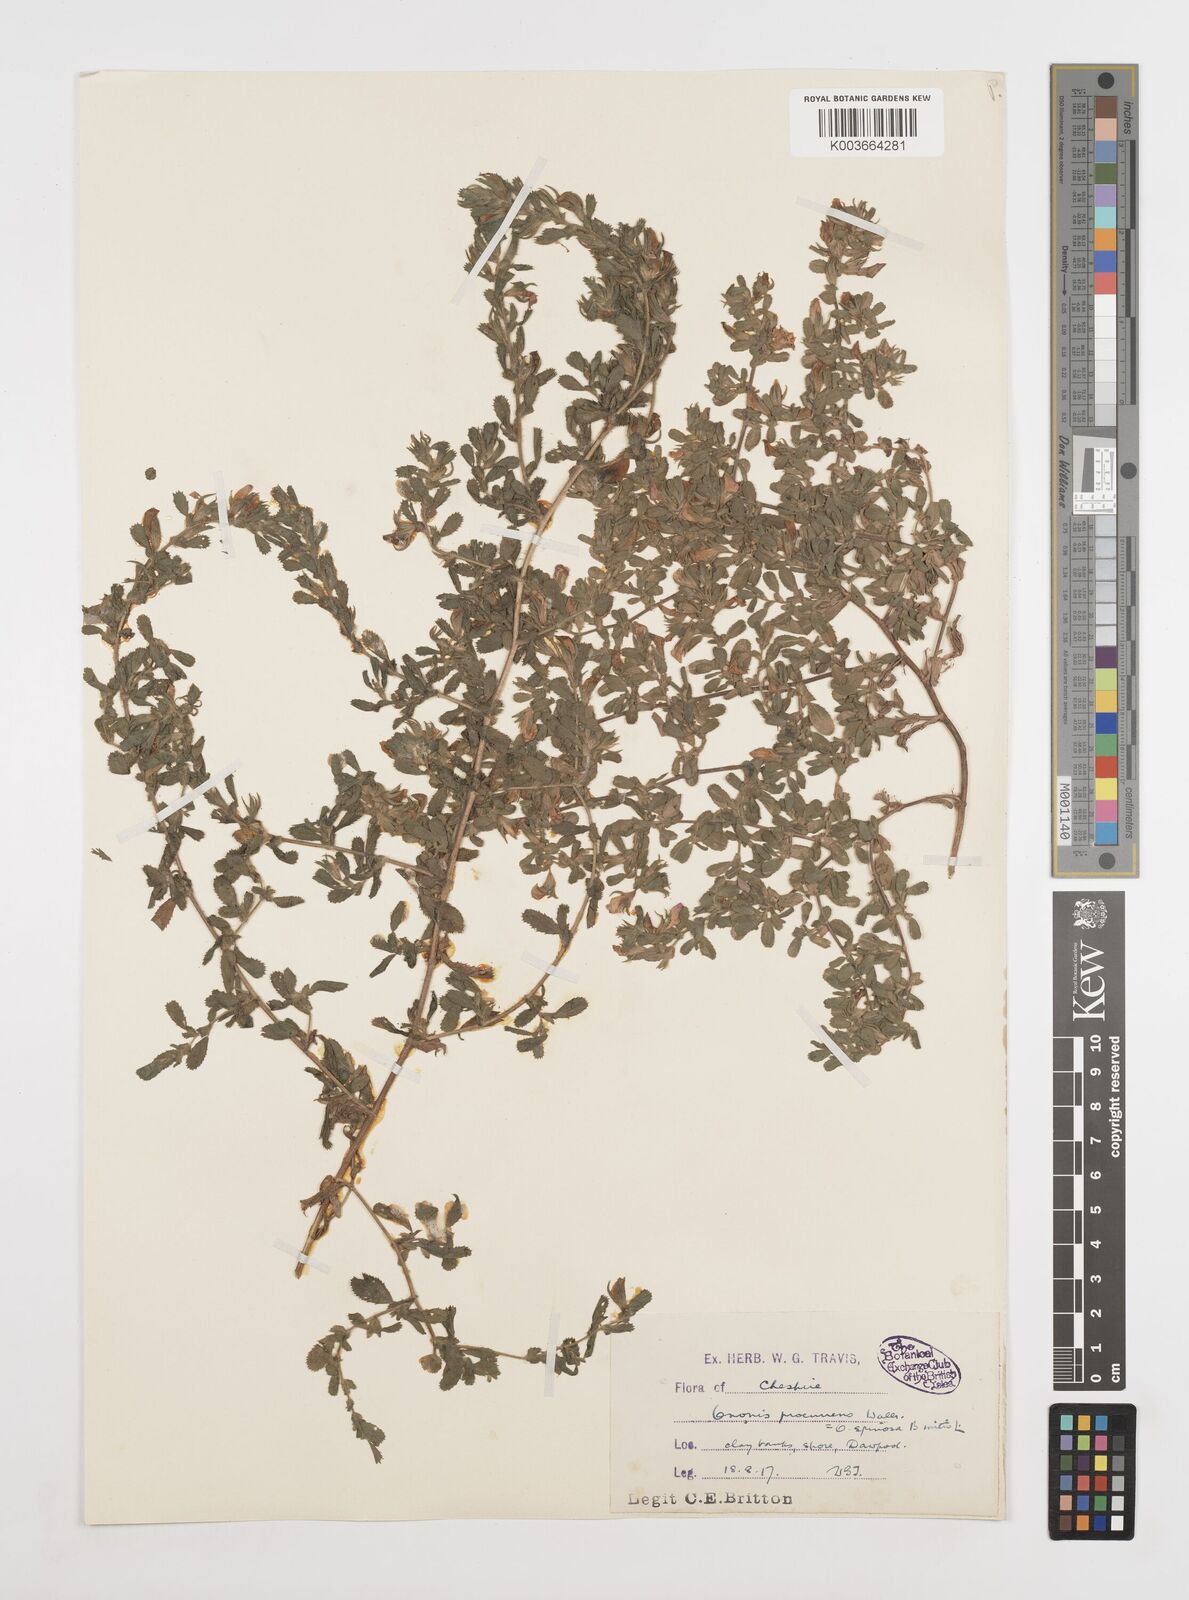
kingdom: Plantae
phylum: Tracheophyta
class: Magnoliopsida
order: Fabales
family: Fabaceae
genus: Ononis
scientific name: Ononis spinosa
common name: Spiny restharrow
